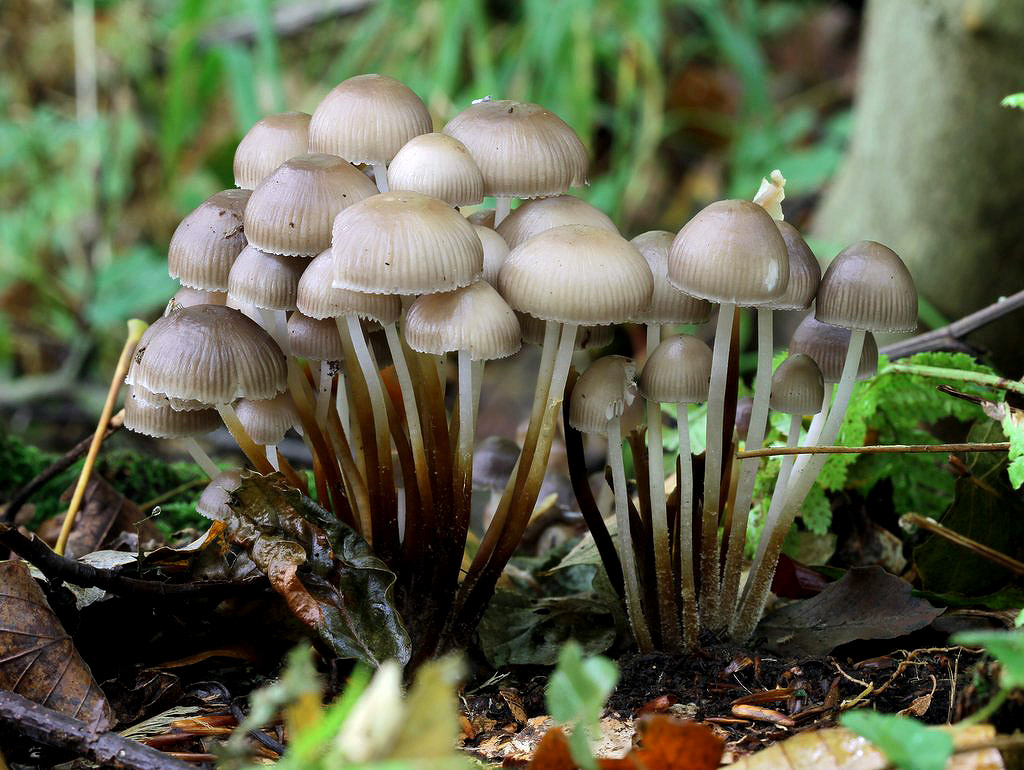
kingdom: Fungi
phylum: Basidiomycota
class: Agaricomycetes
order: Agaricales
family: Mycenaceae
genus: Mycena
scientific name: Mycena inclinata
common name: nikkende huesvamp
